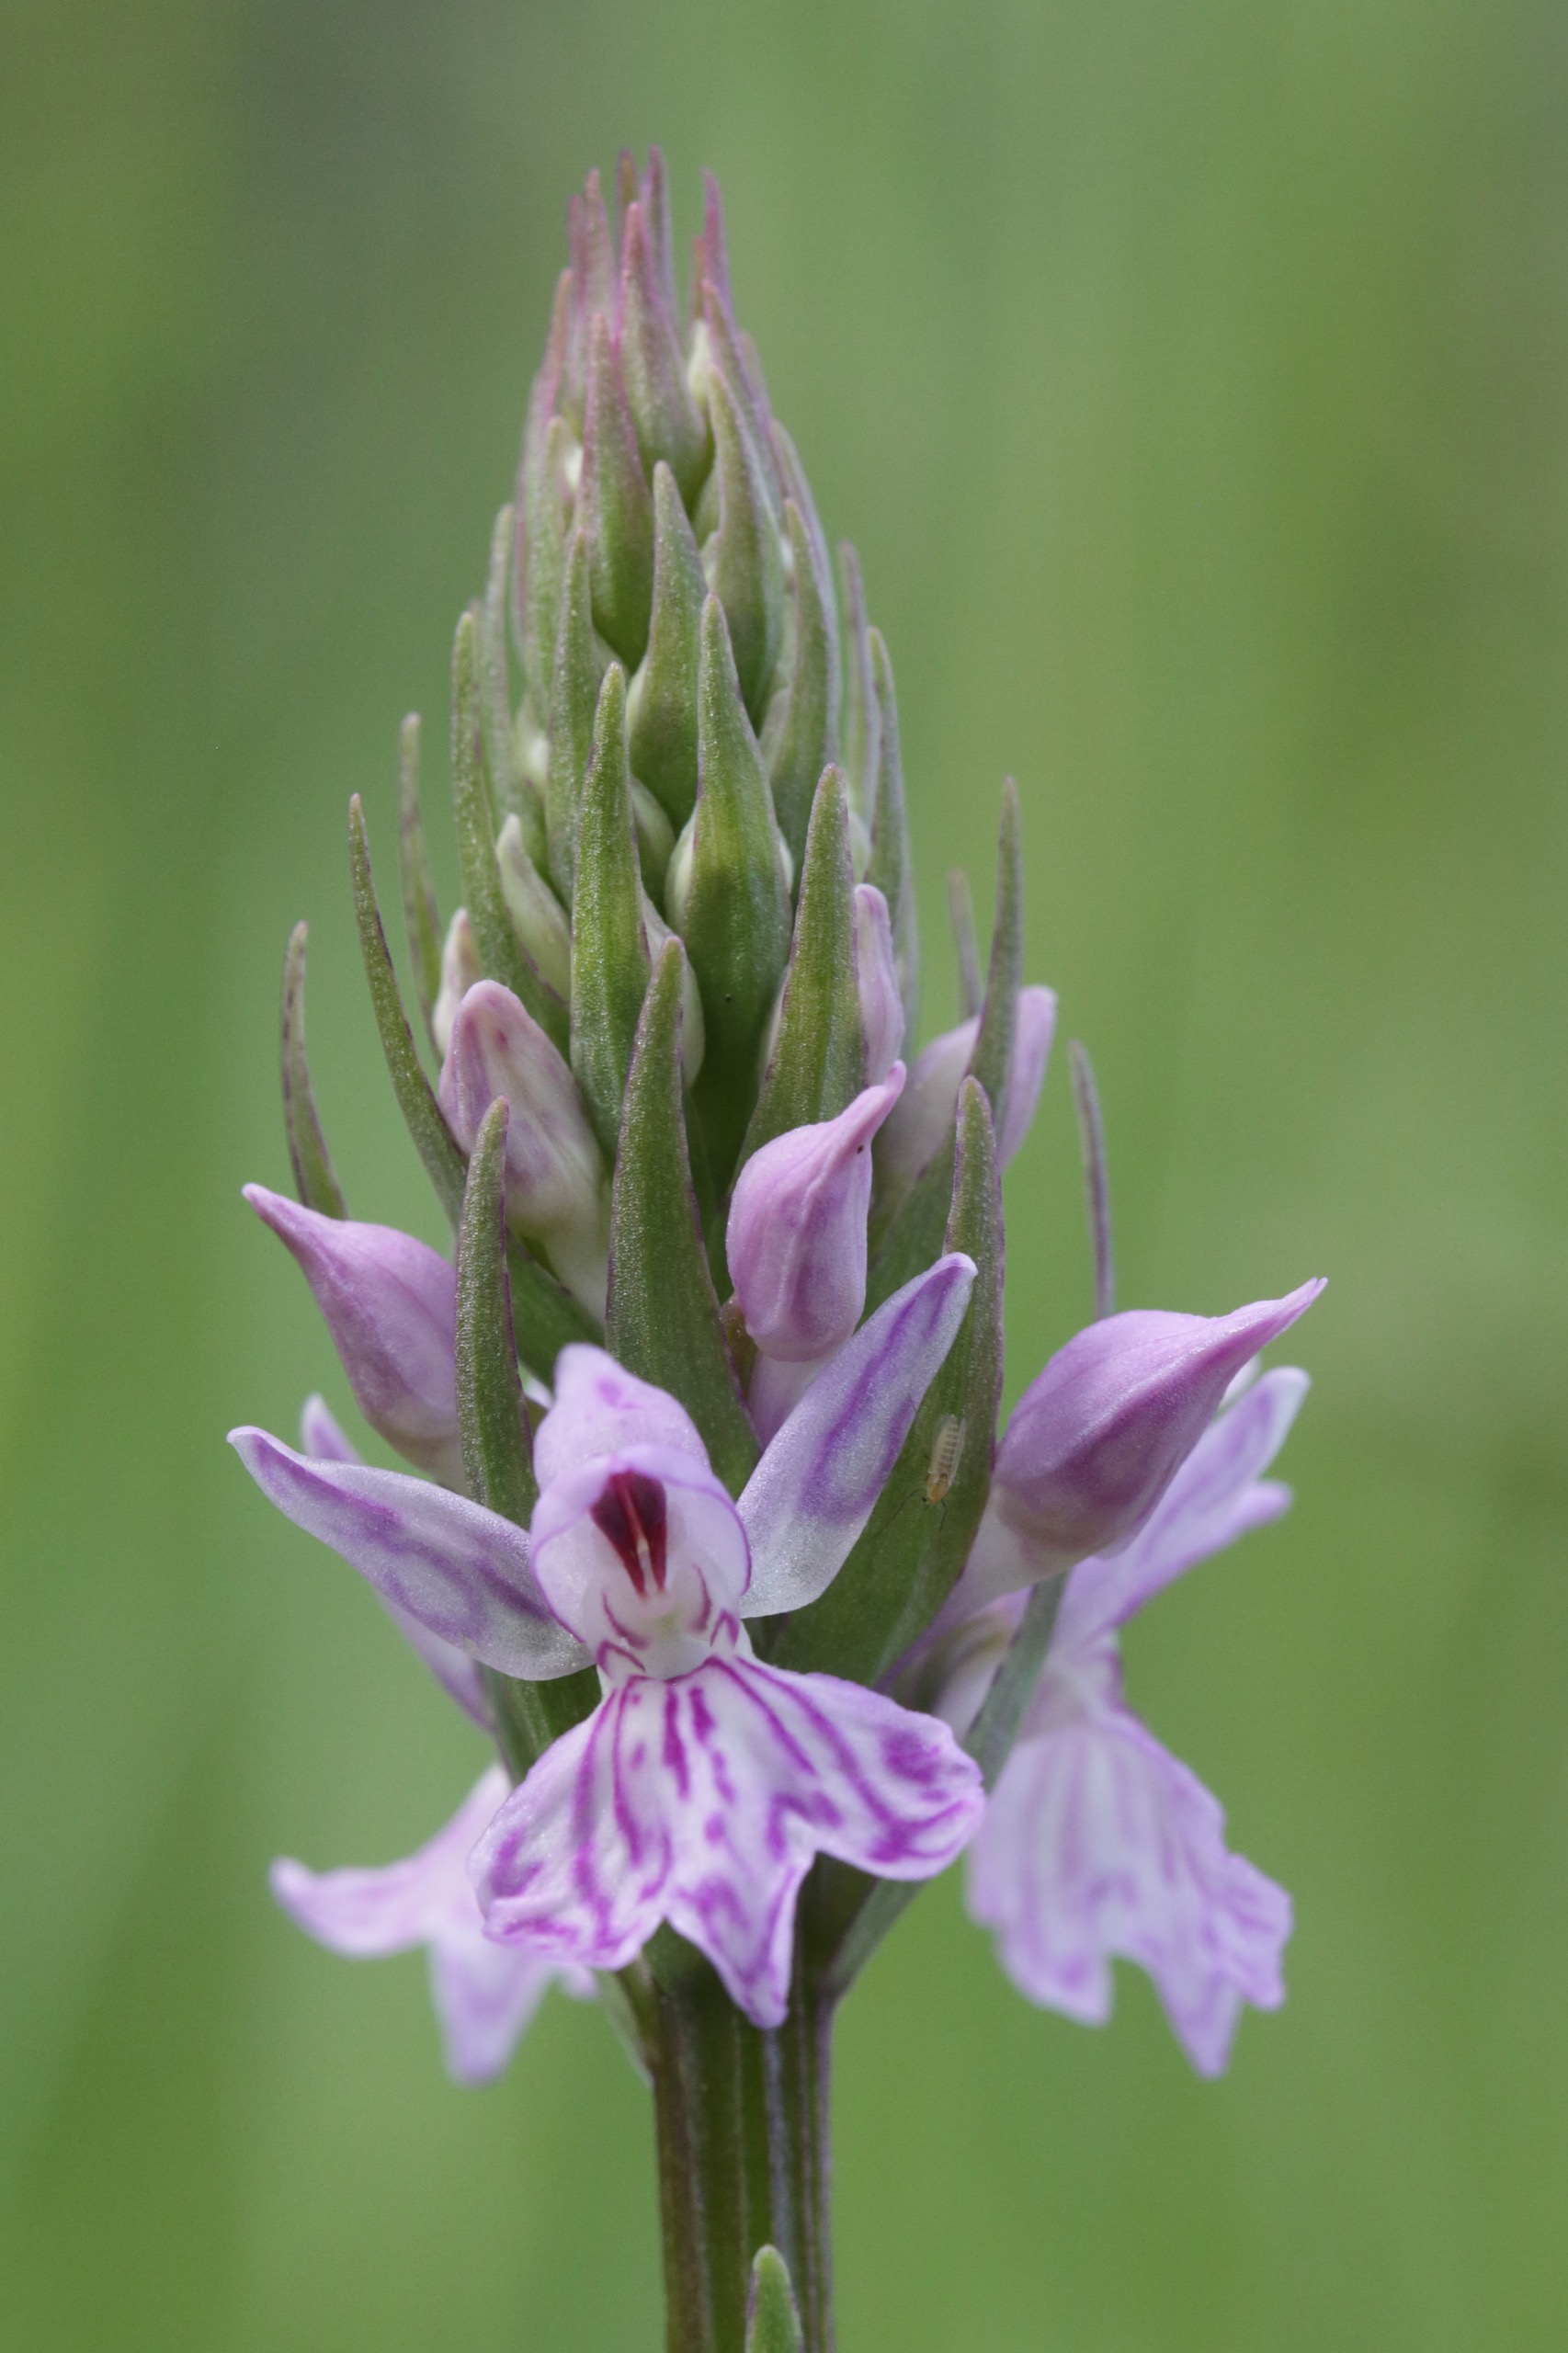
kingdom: Plantae
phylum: Tracheophyta
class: Liliopsida
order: Asparagales
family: Orchidaceae
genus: Dactylorhiza
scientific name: Dactylorhiza maculata
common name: Skov-gøgeurt
